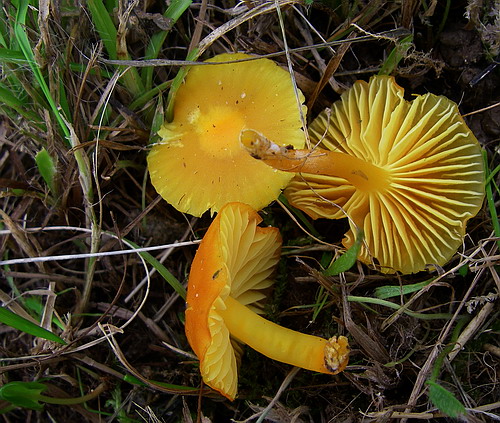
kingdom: Fungi
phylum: Basidiomycota
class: Agaricomycetes
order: Agaricales
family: Hygrophoraceae
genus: Hygrocybe
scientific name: Hygrocybe ceracea
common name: voksgul vokshat
